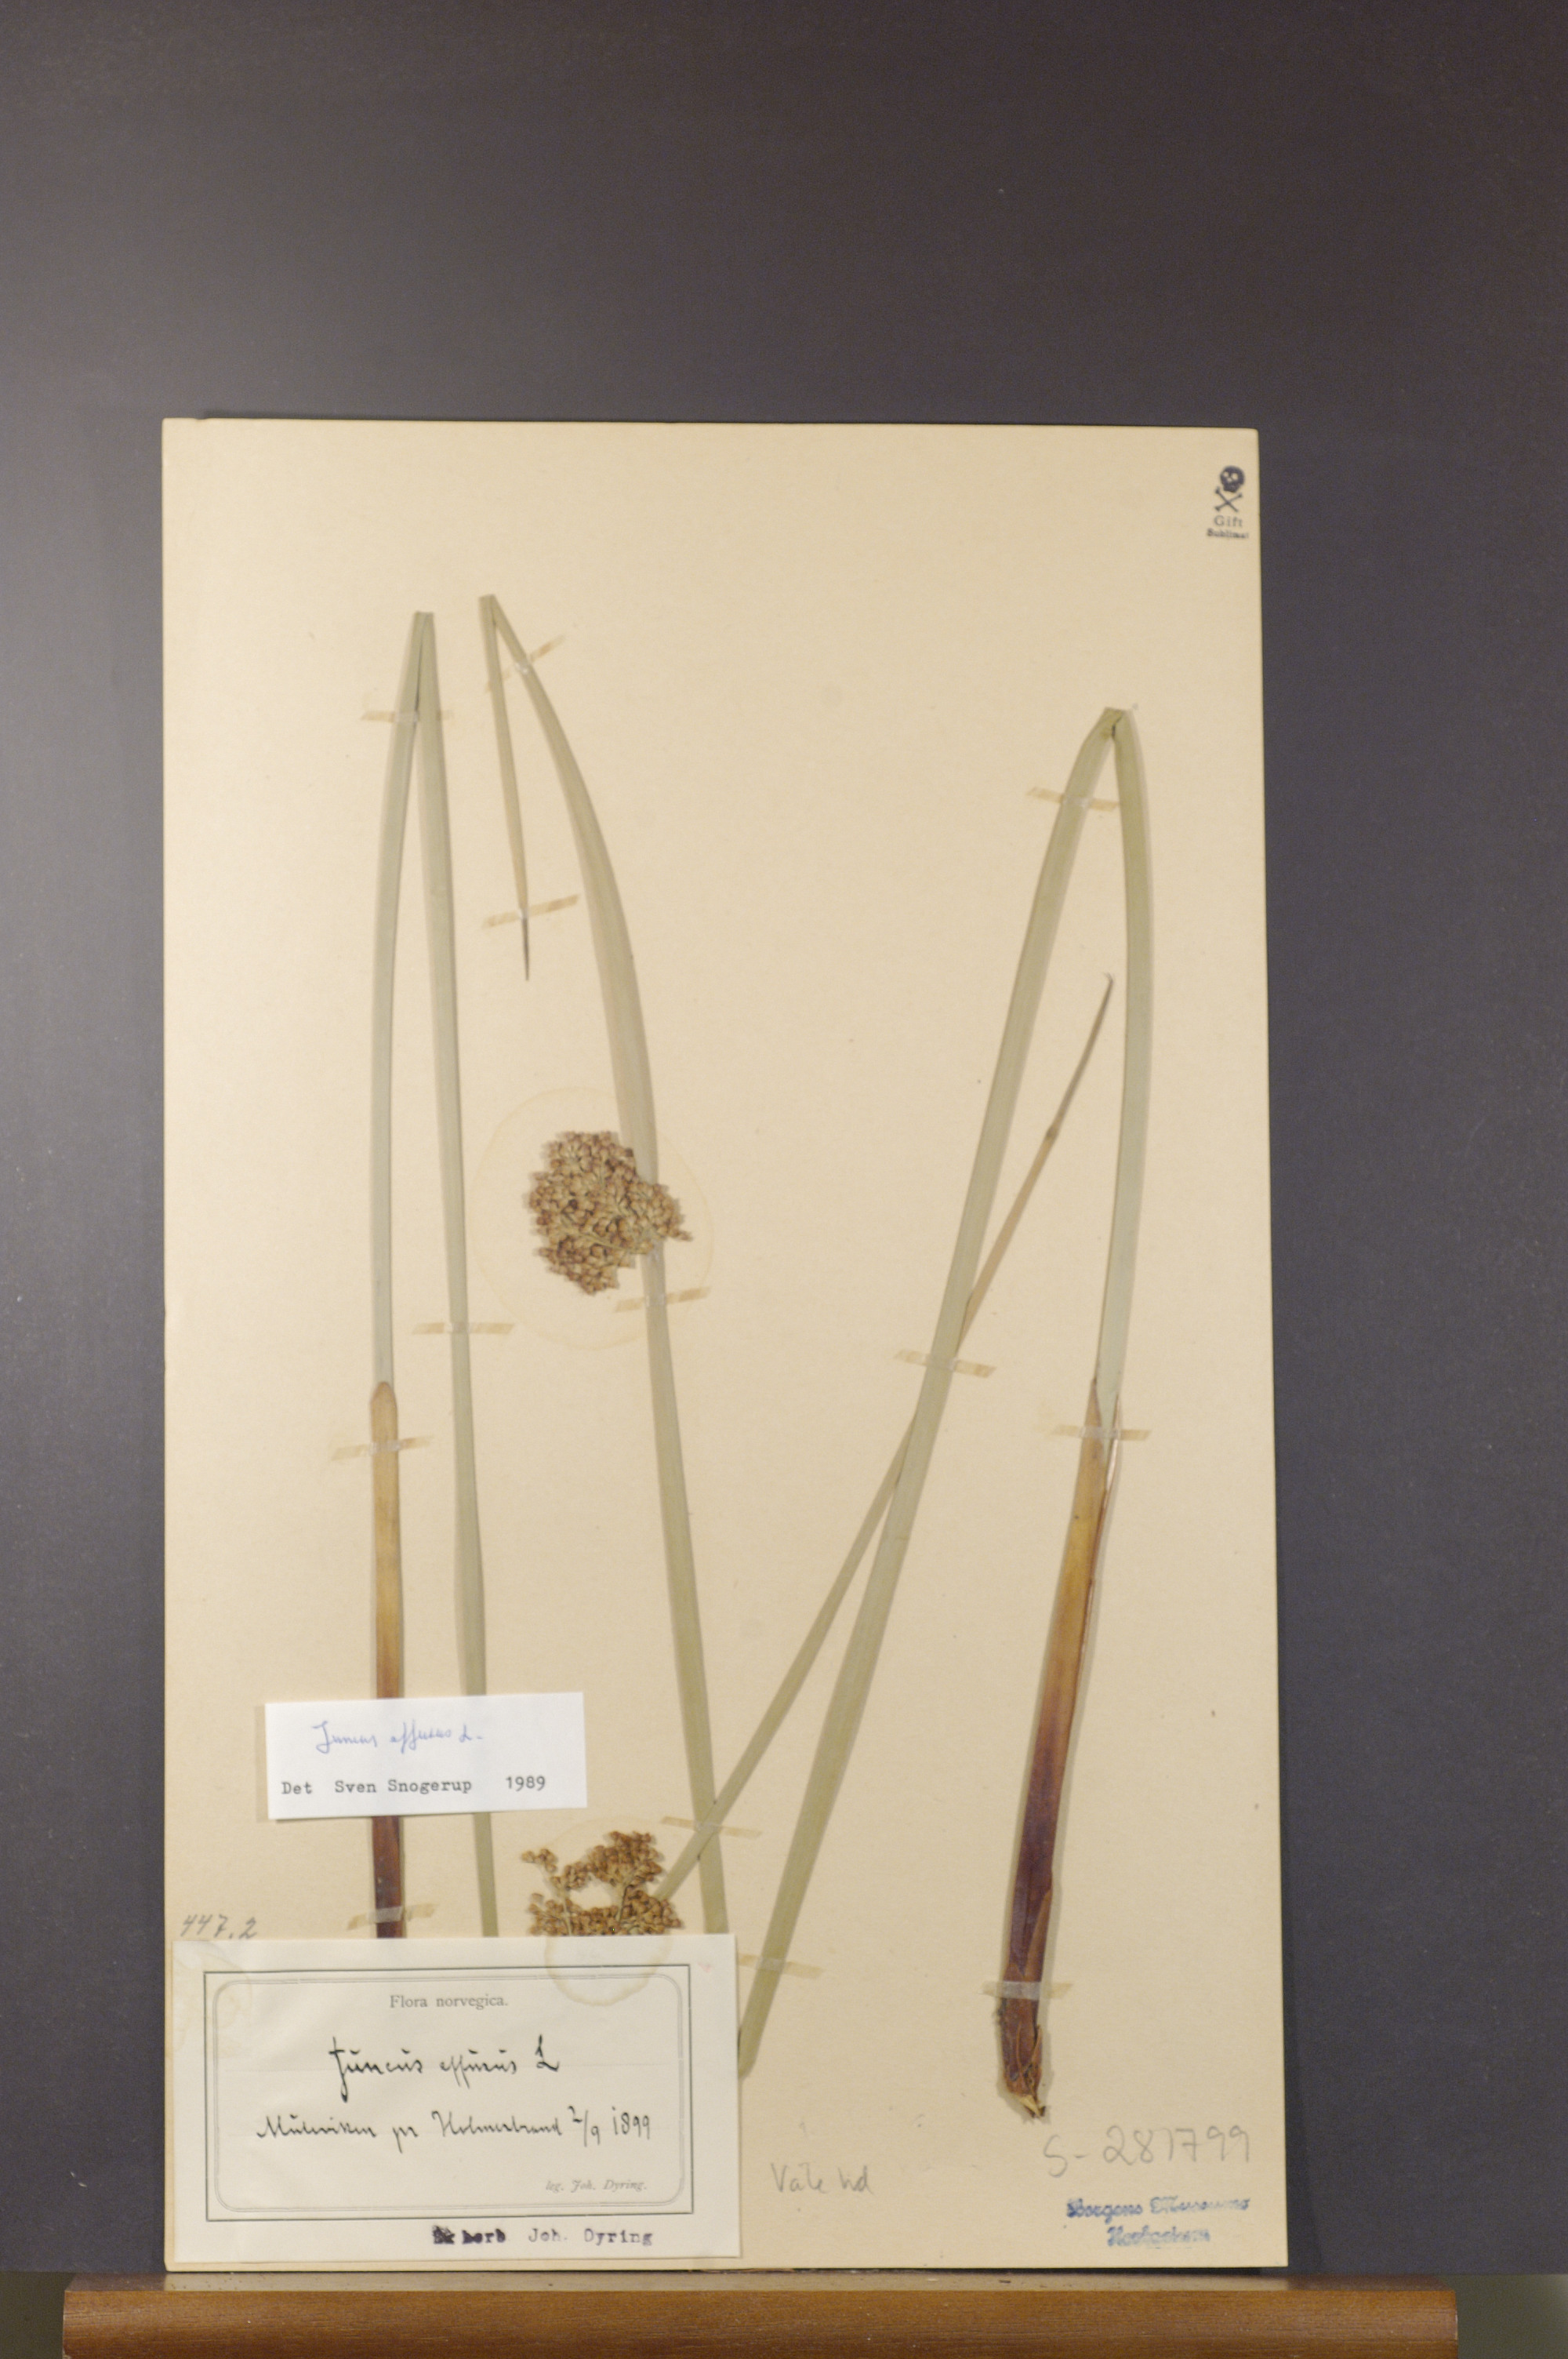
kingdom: Plantae
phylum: Tracheophyta
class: Liliopsida
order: Poales
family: Juncaceae
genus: Juncus
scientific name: Juncus effusus
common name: Soft rush
